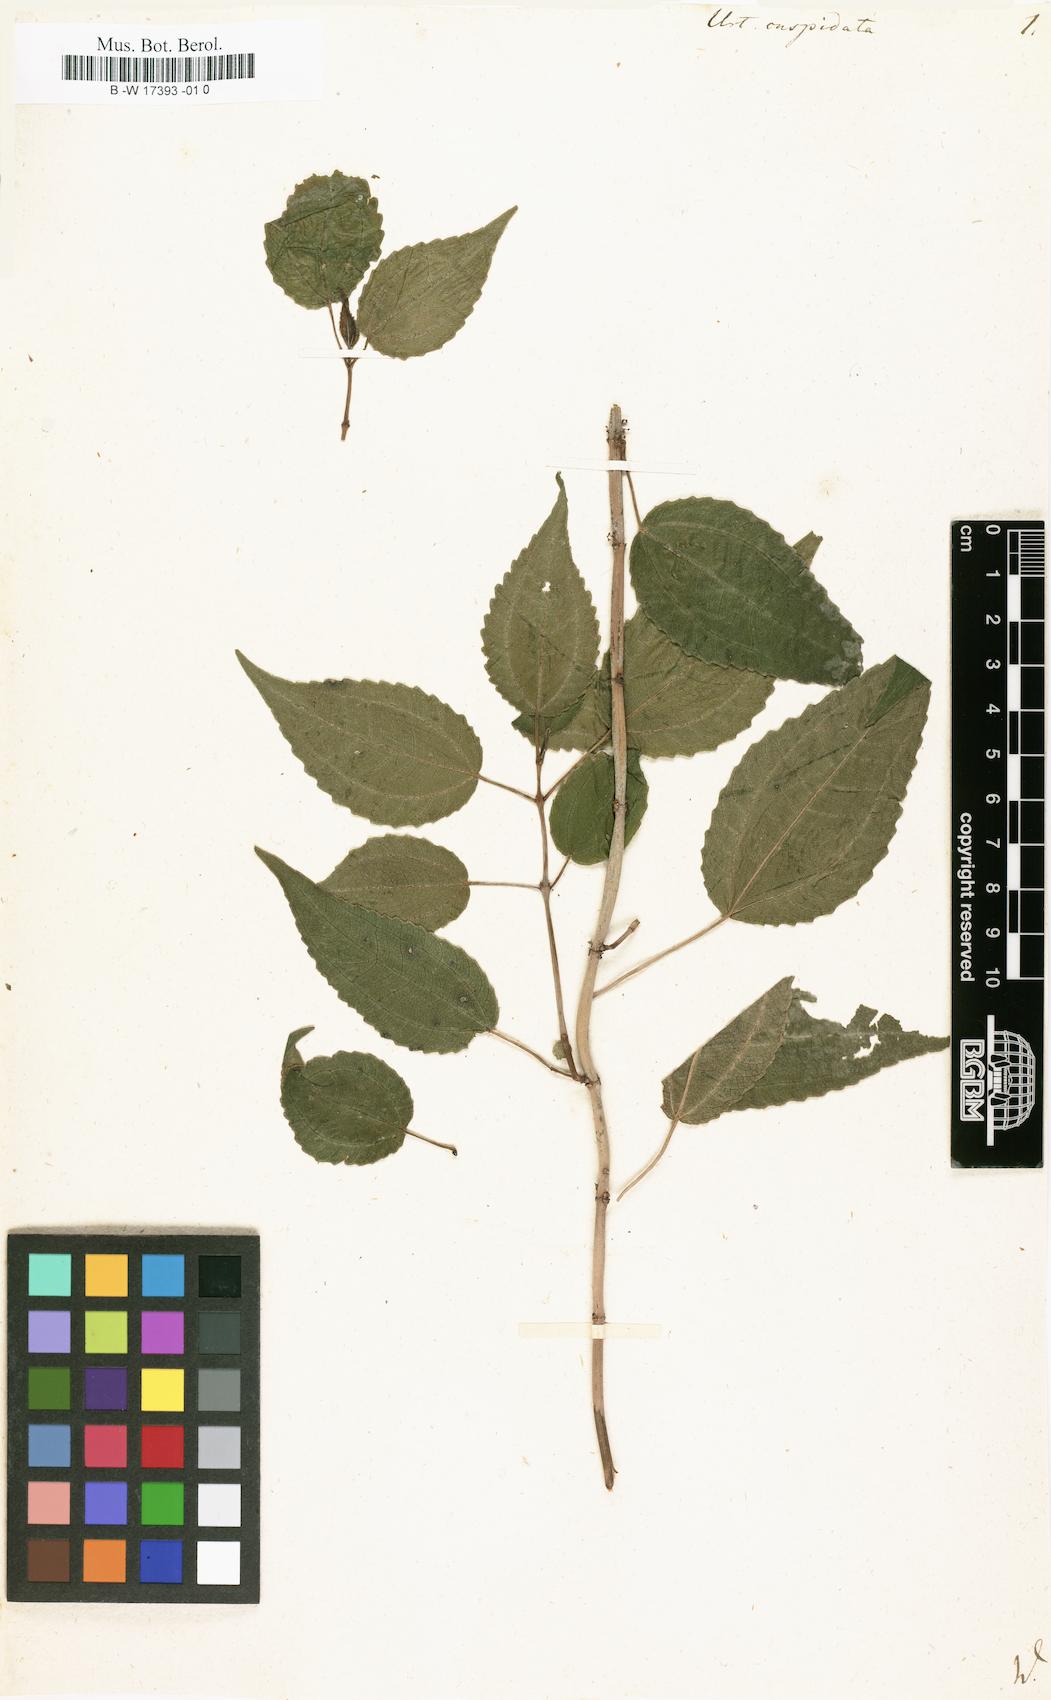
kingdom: Plantae
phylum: Tracheophyta
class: Magnoliopsida
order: Rosales
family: Urticaceae
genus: Pilea
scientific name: Pilea lucens
